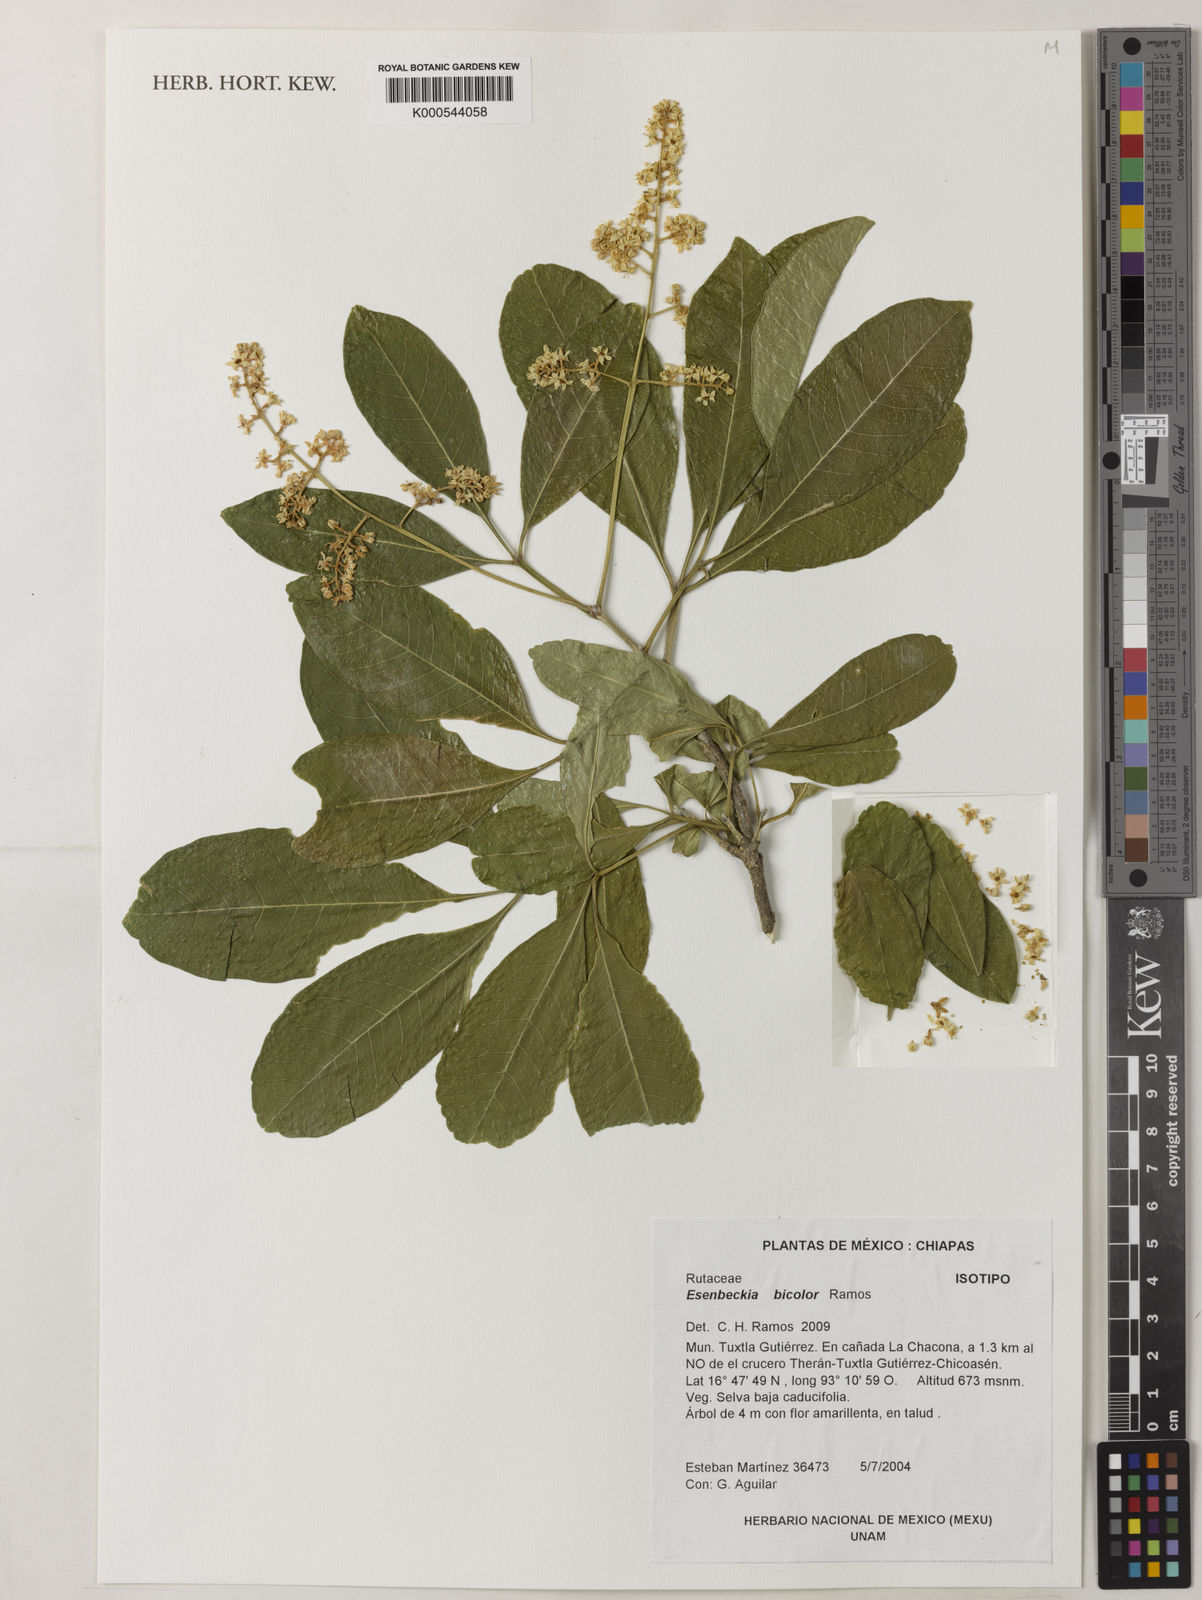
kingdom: Plantae
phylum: Tracheophyta
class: Magnoliopsida
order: Sapindales
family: Rutaceae
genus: Esenbeckia
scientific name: Esenbeckia bicolor
